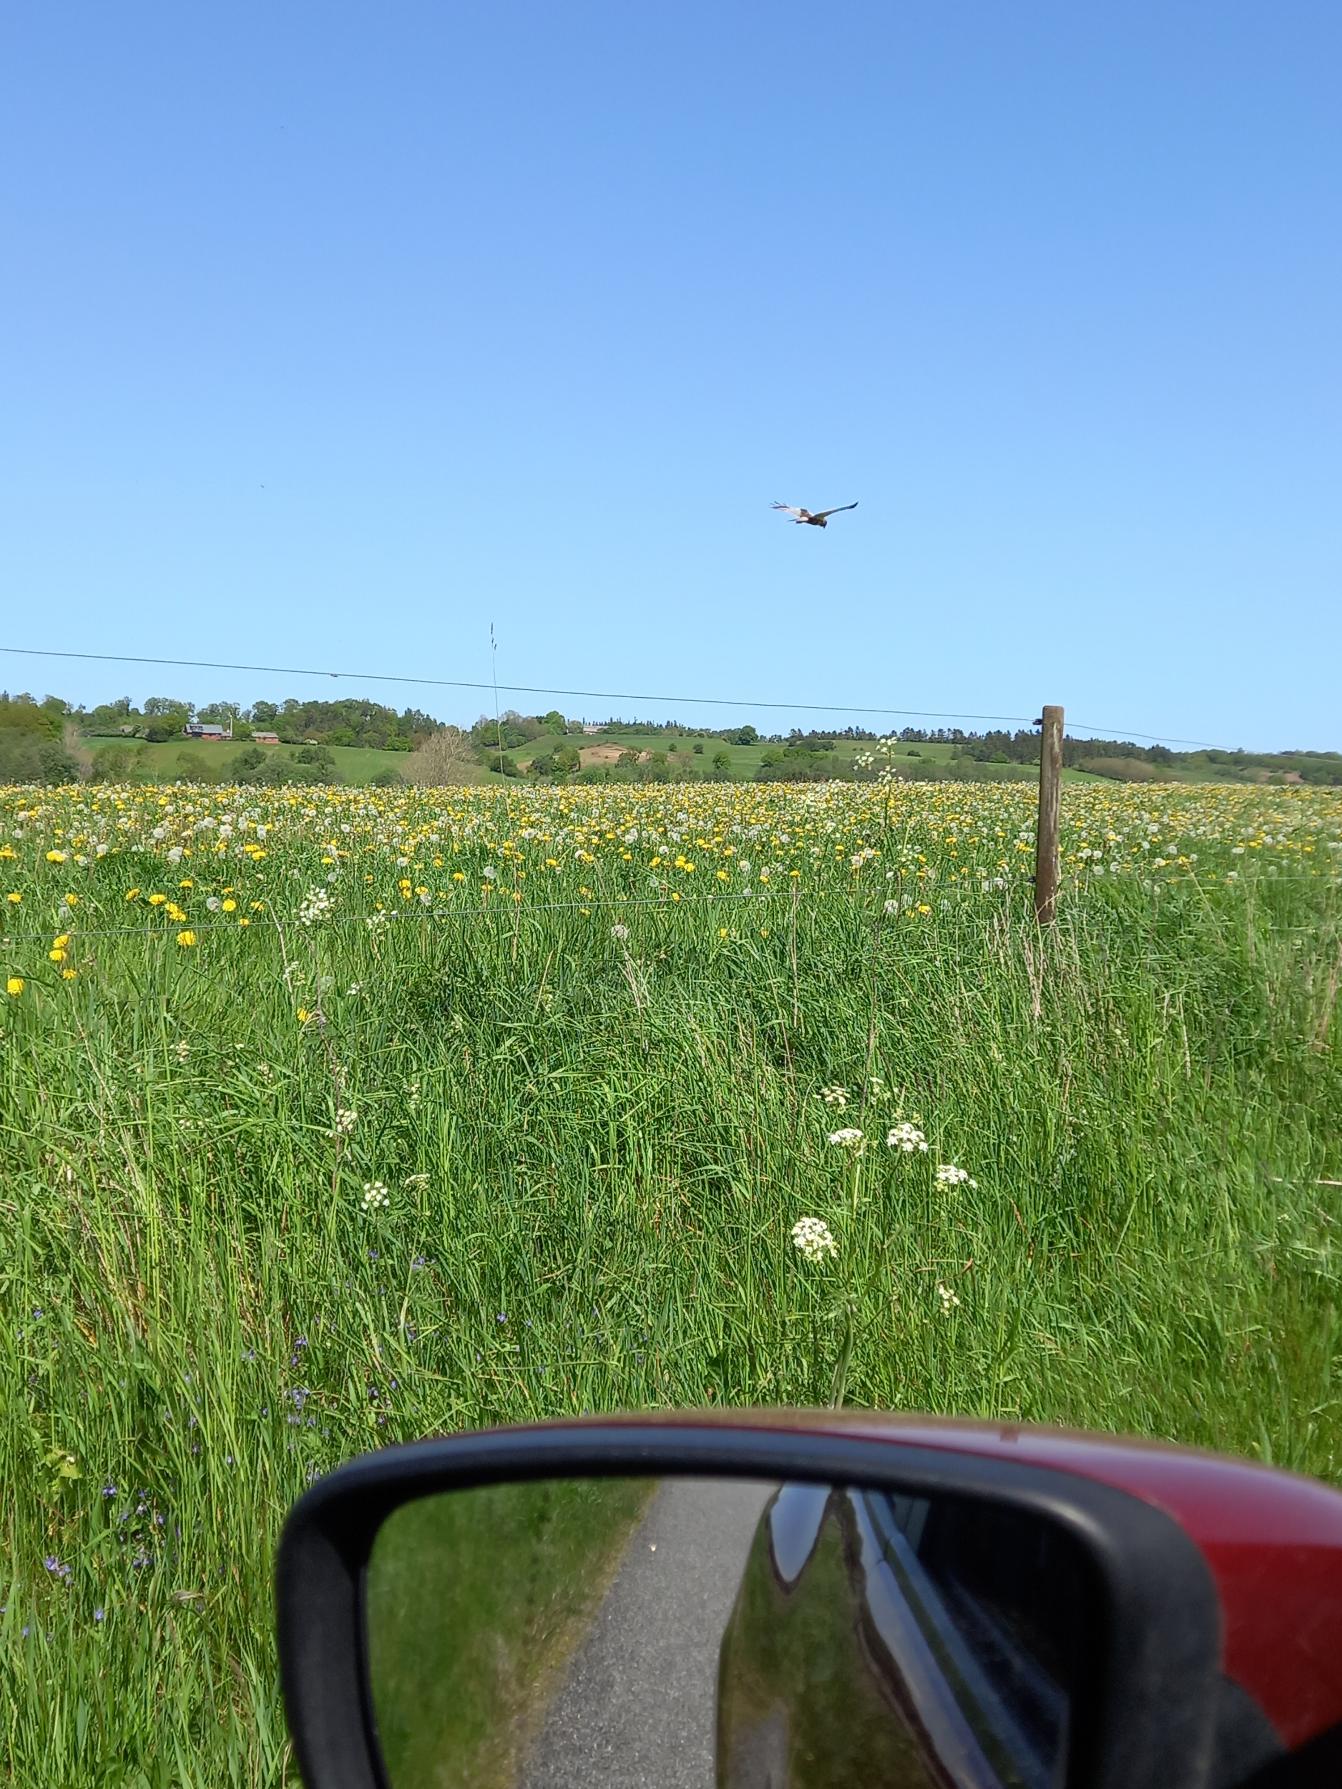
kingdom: Animalia
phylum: Chordata
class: Aves
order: Accipitriformes
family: Accipitridae
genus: Circus
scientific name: Circus aeruginosus
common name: Rørhøg
